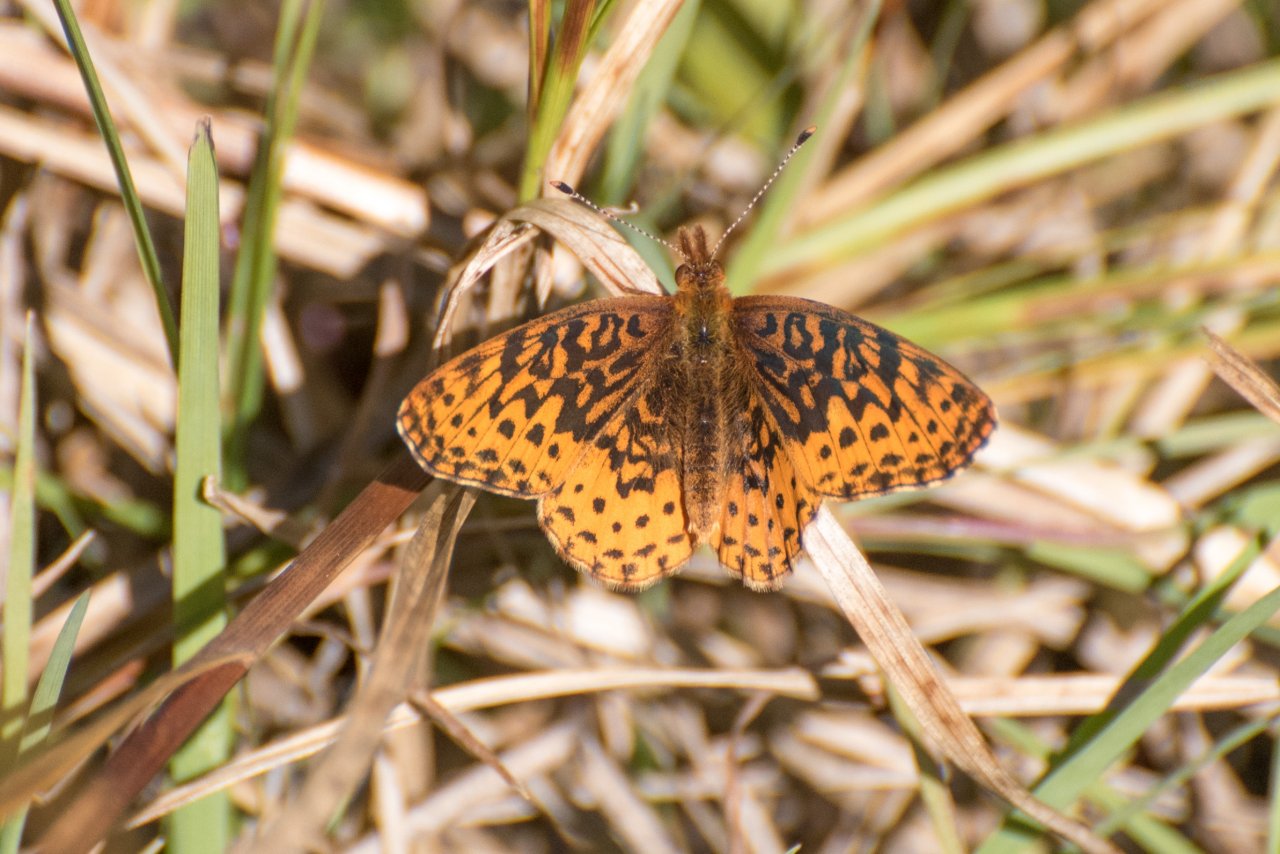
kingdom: Animalia
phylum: Arthropoda
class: Insecta
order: Lepidoptera
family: Nymphalidae
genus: Clossiana
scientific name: Clossiana toddi
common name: Meadow Fritillary
